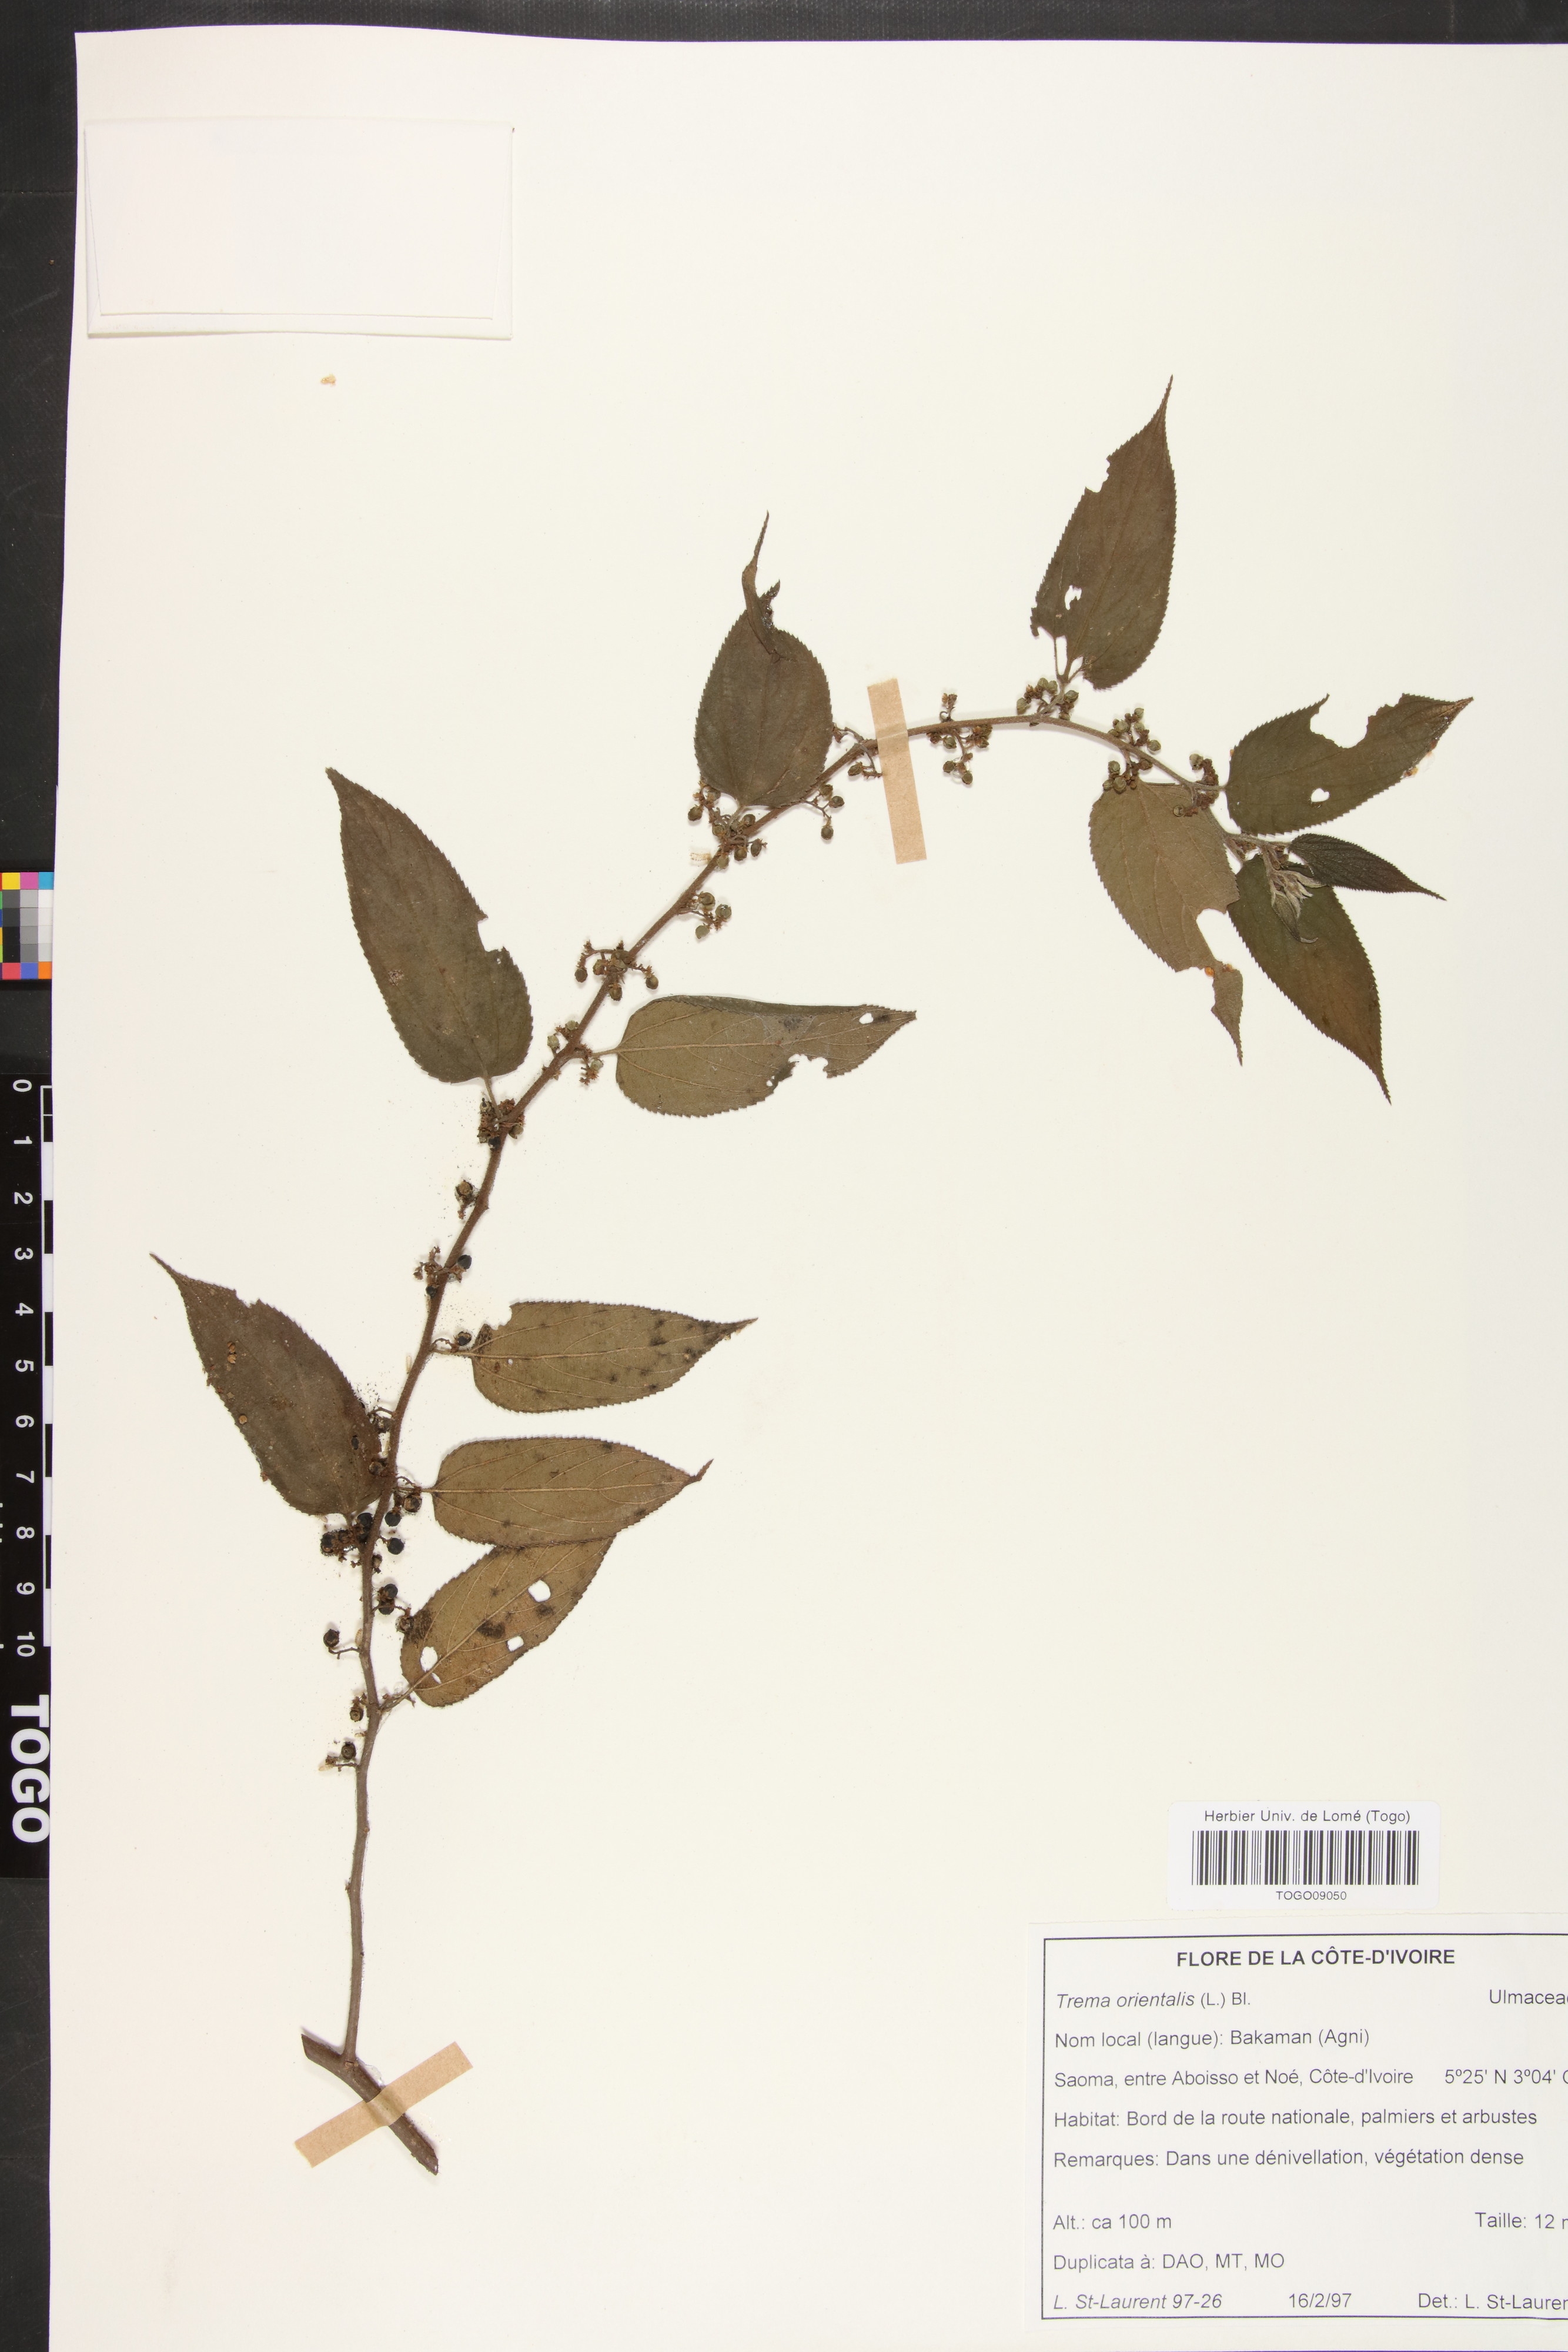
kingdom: Plantae
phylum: Tracheophyta
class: Magnoliopsida
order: Rosales
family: Cannabaceae
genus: Trema
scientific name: Trema orientale
